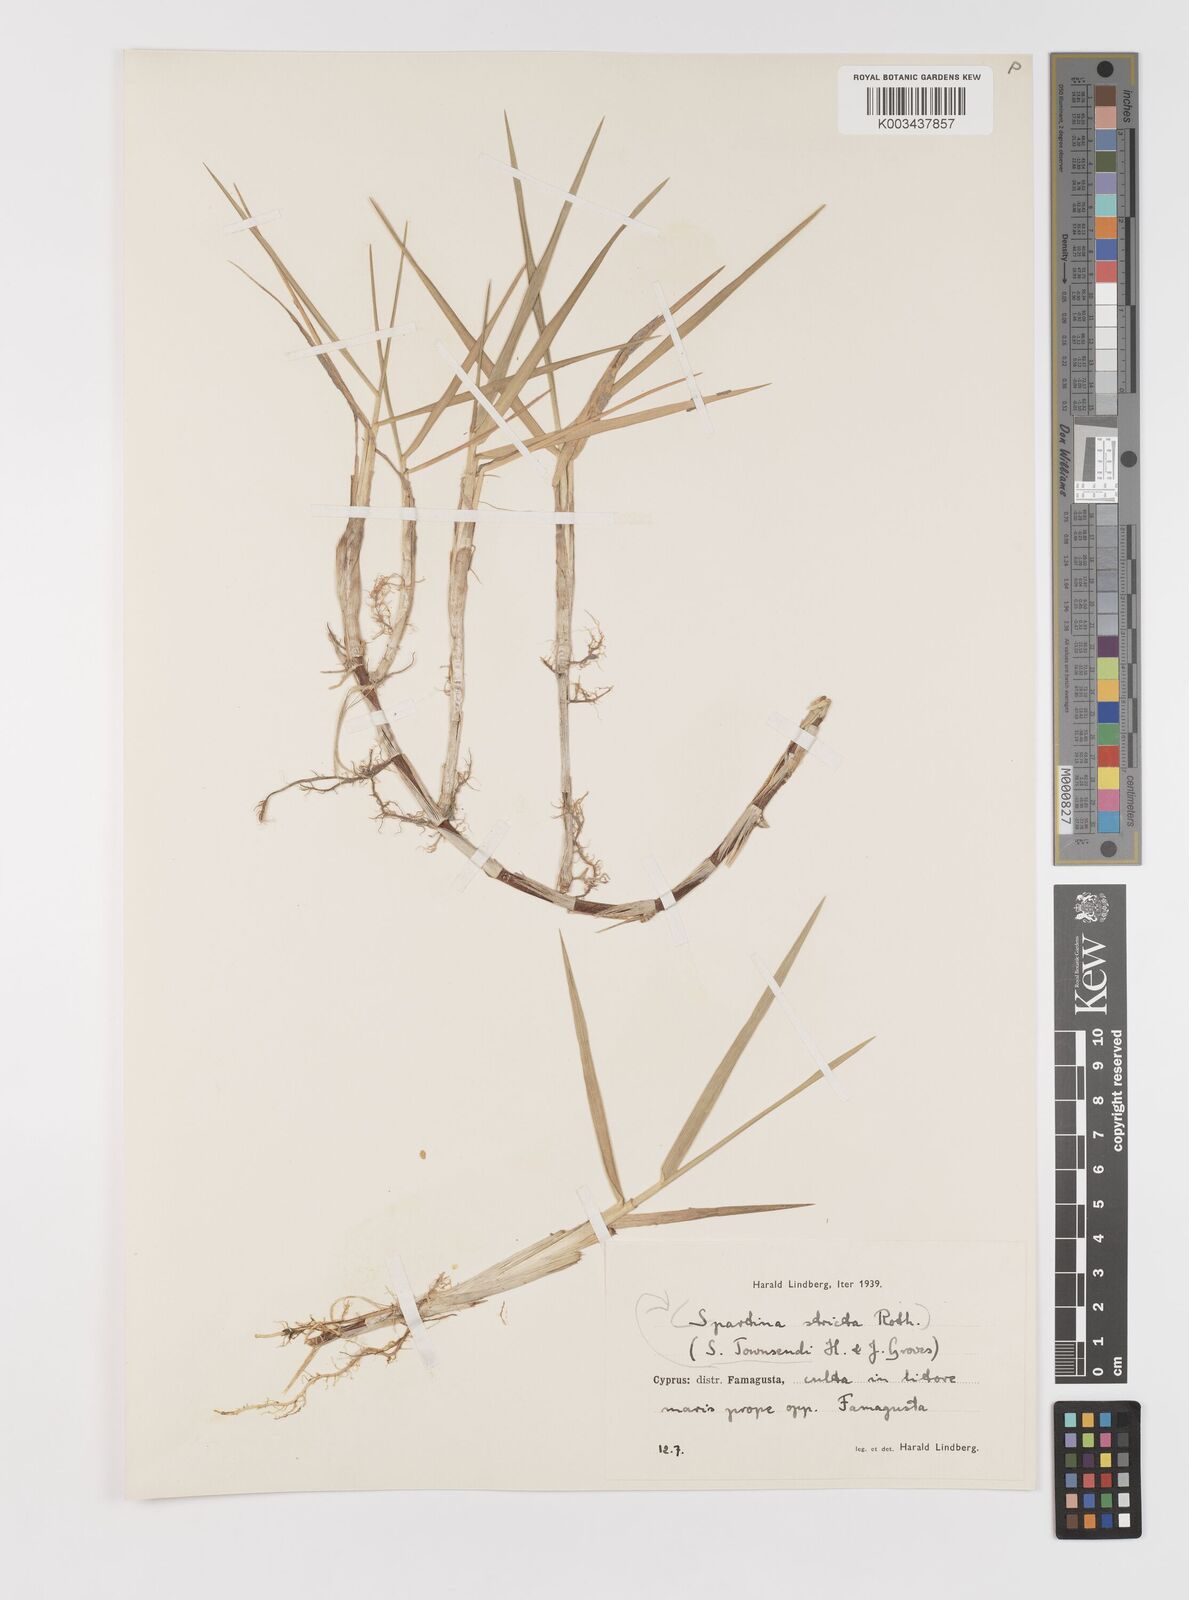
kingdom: Plantae
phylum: Tracheophyta
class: Liliopsida
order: Poales
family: Poaceae
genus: Sporobolus
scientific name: Sporobolus anglicus
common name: English cordgrass
